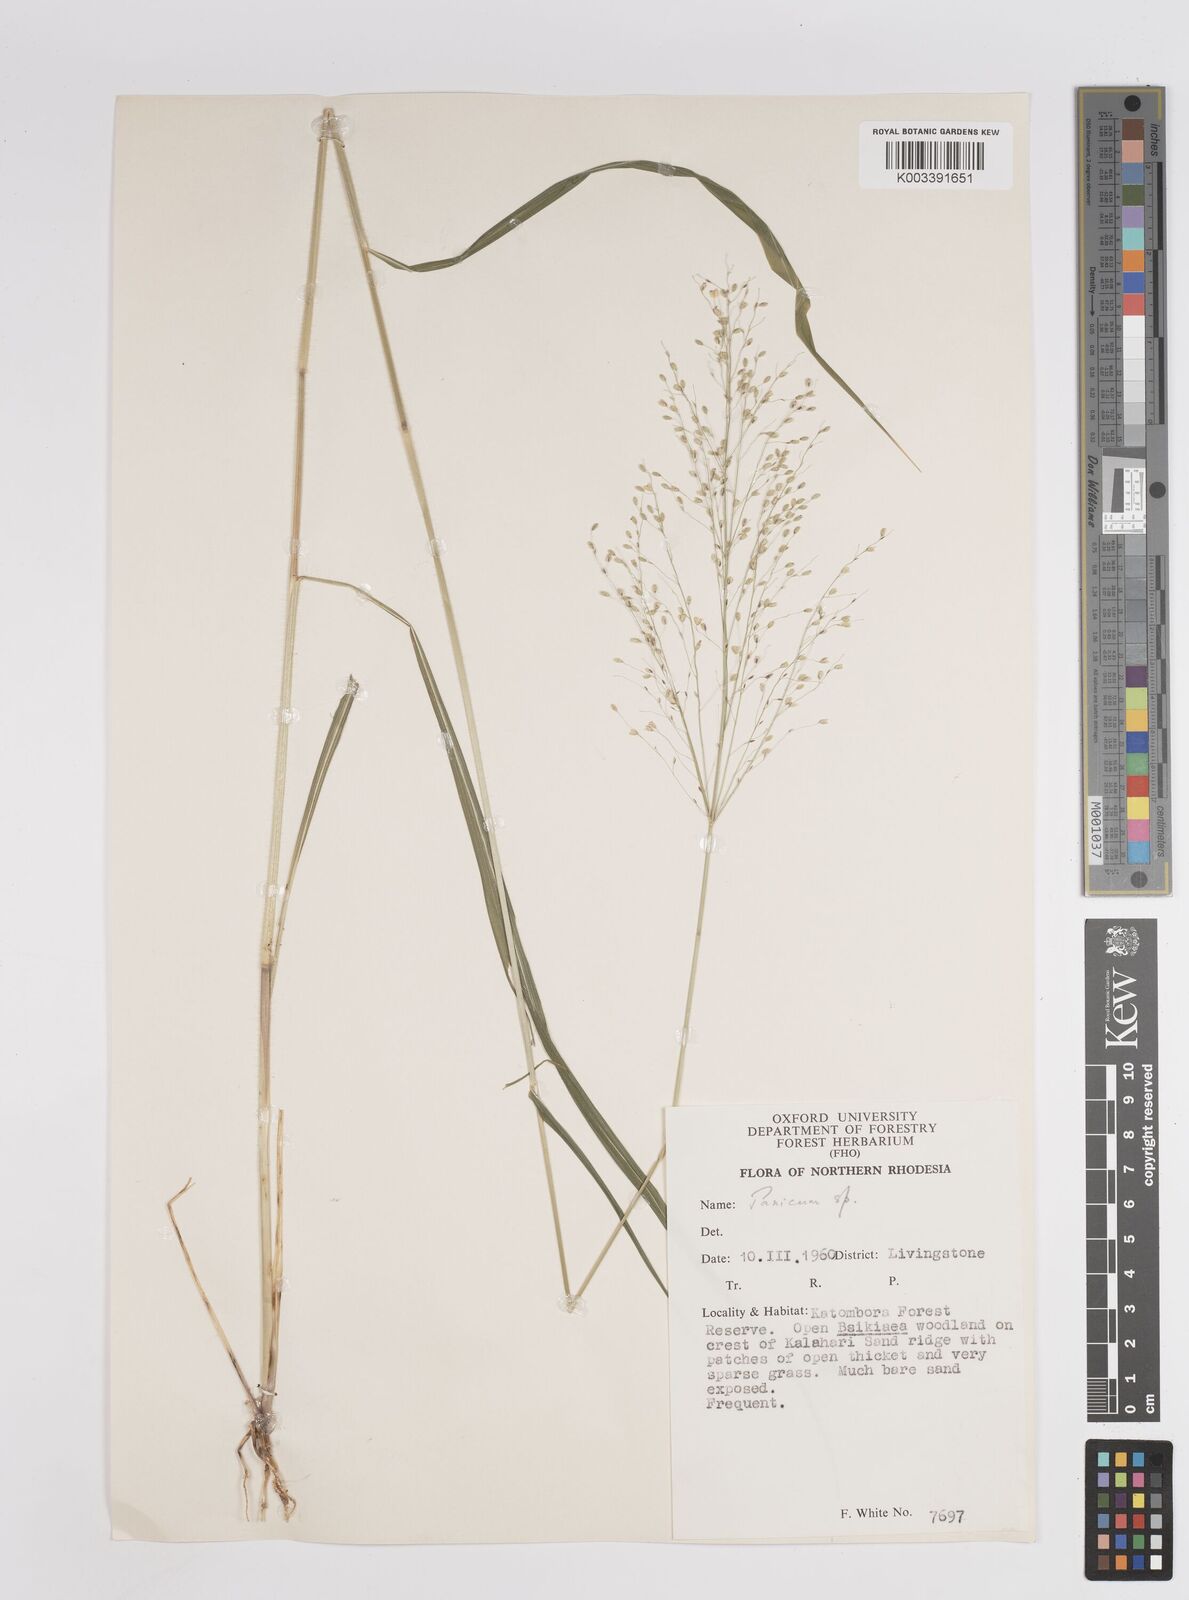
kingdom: Plantae
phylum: Tracheophyta
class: Liliopsida
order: Poales
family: Poaceae
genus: Megathyrsus
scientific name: Megathyrsus maximus
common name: Guineagrass
